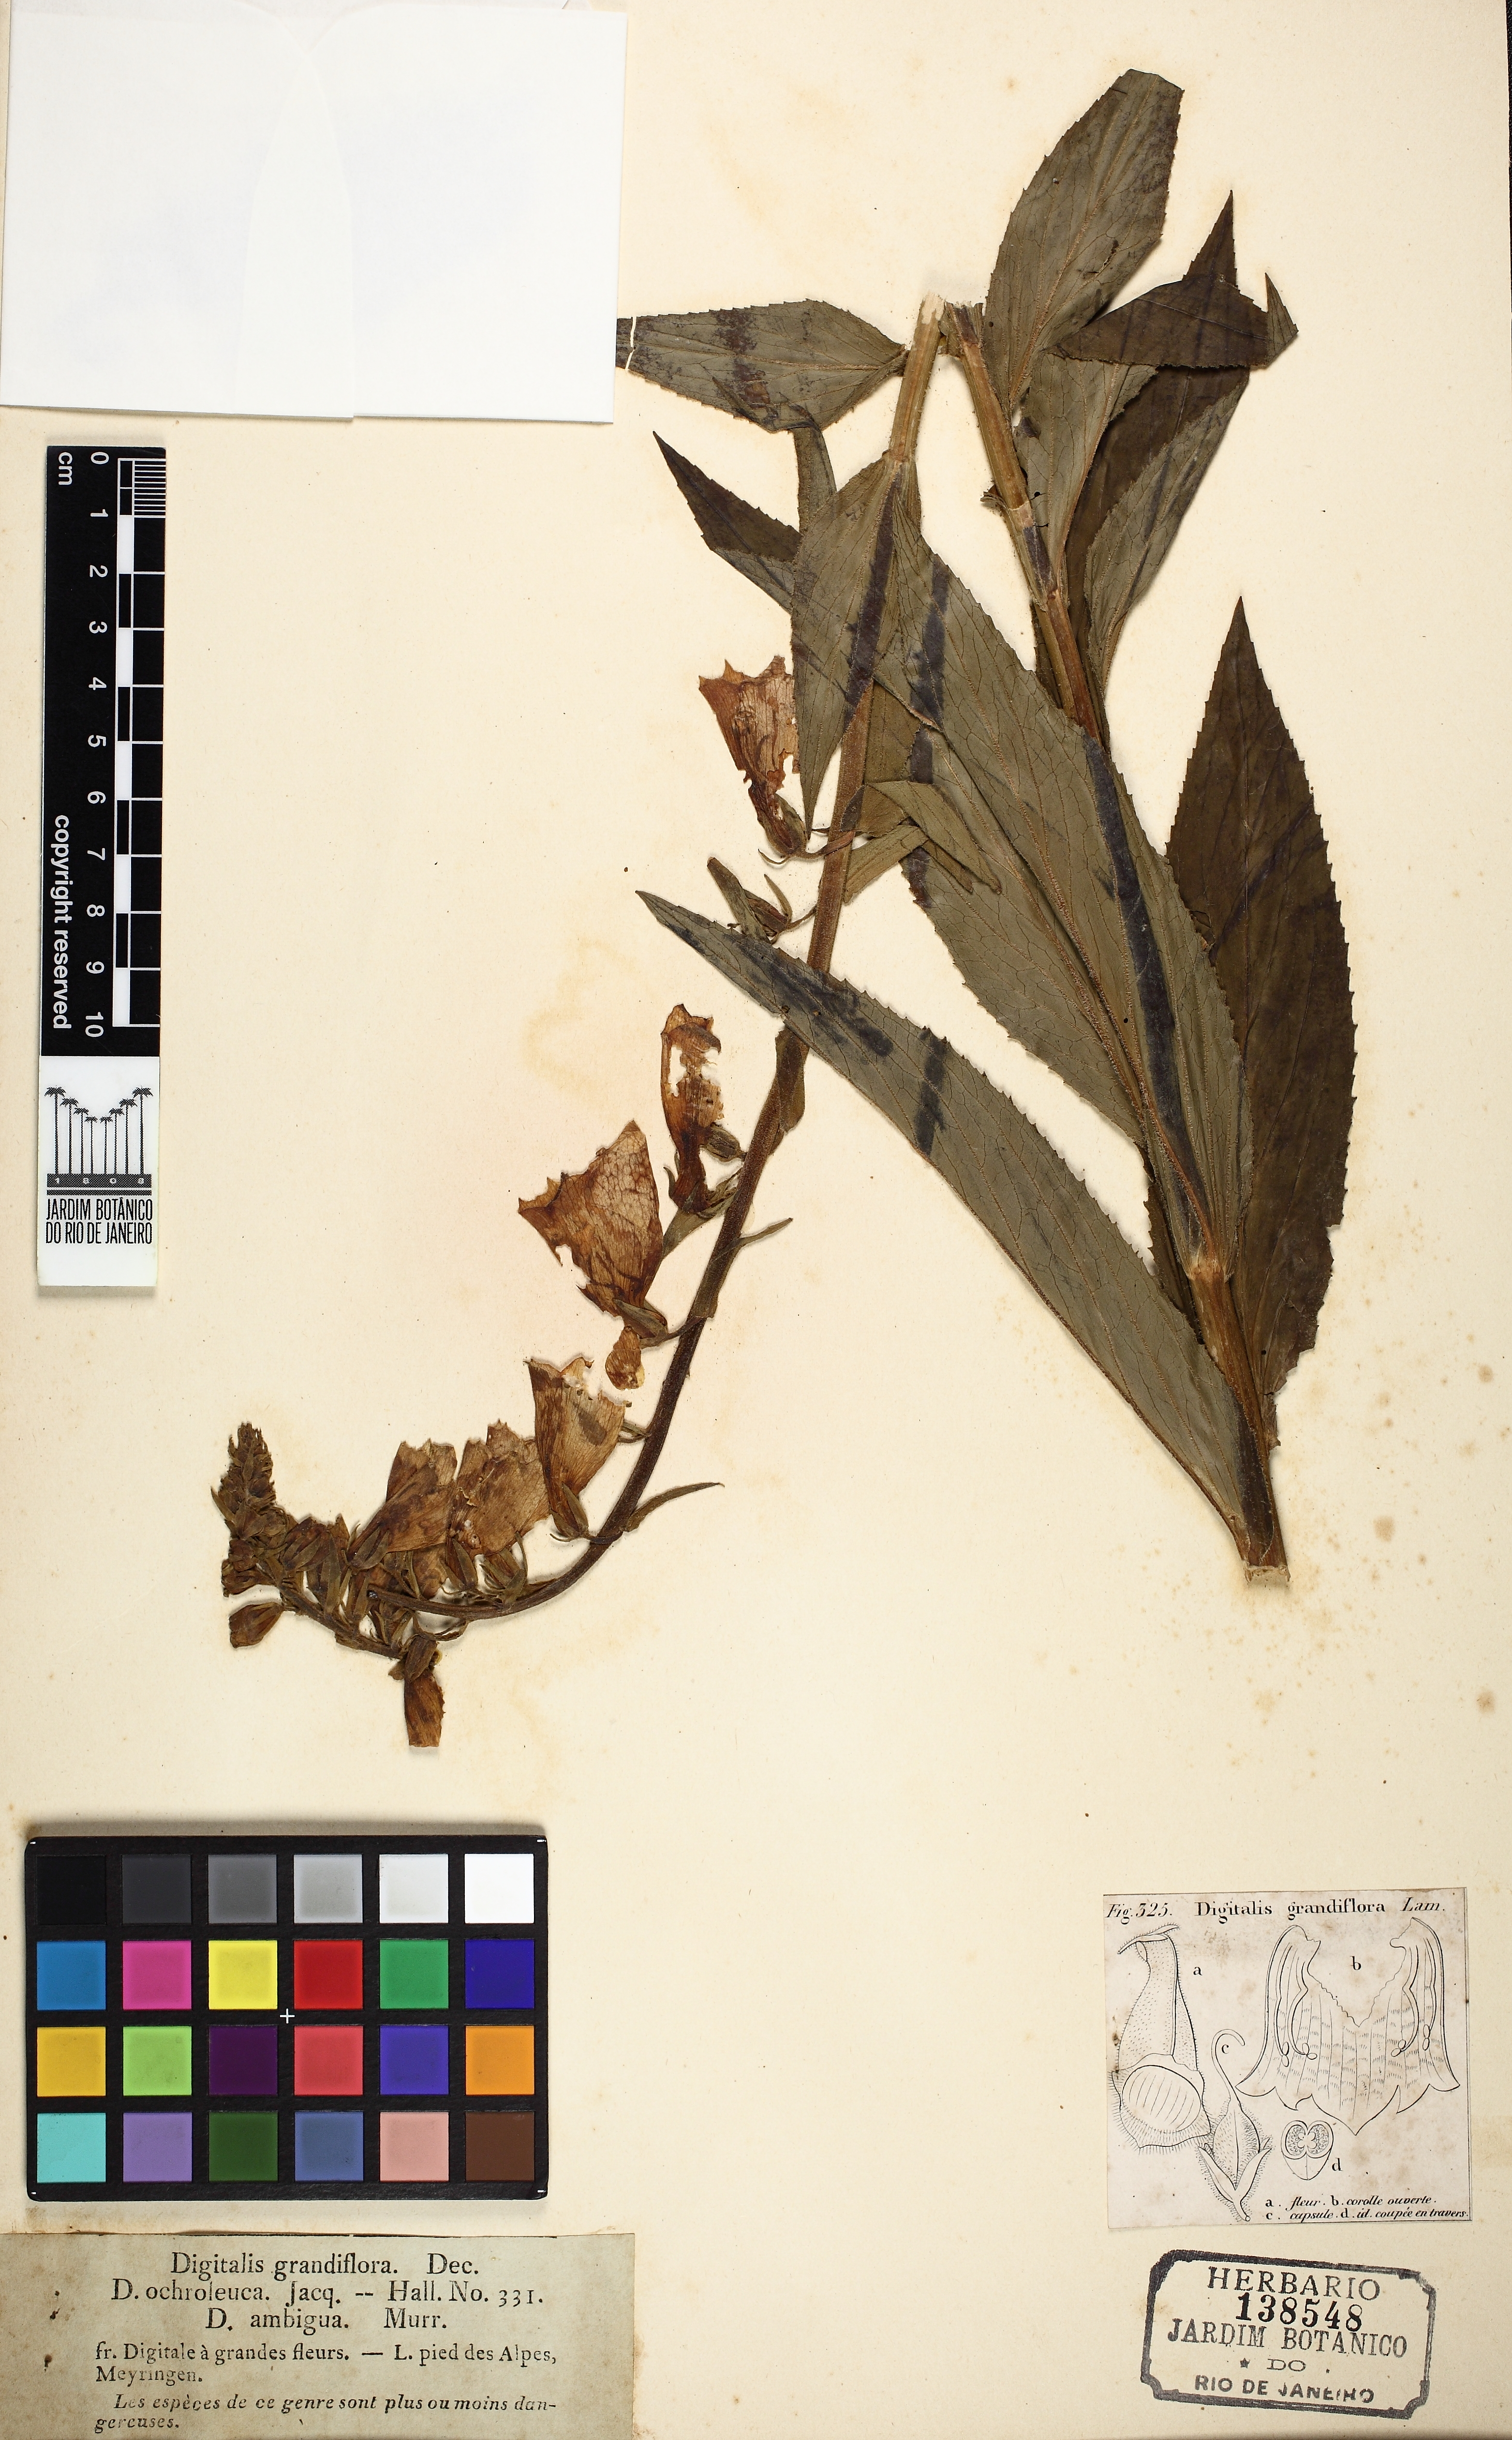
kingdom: Plantae
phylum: Tracheophyta
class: Magnoliopsida
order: Lamiales
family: Plantaginaceae
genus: Digitalis
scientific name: Digitalis grandiflora
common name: Yellow foxglove
